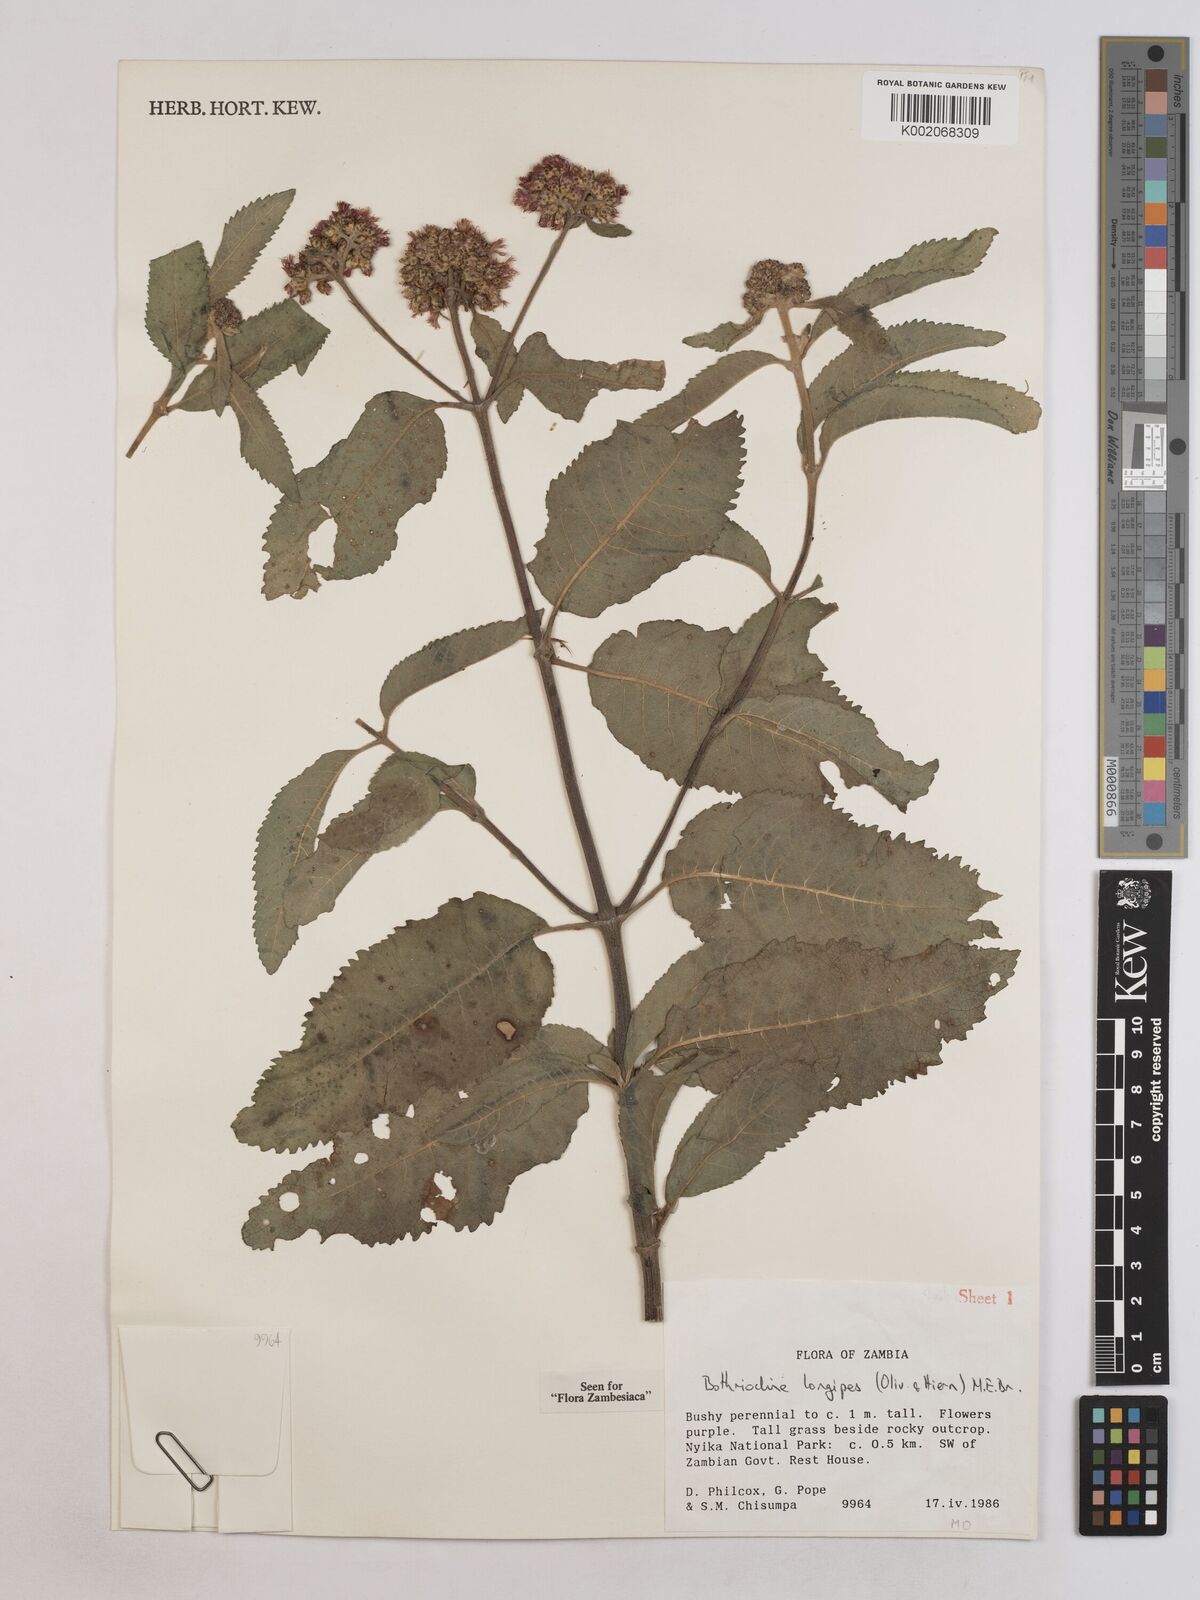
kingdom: Plantae
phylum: Tracheophyta
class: Magnoliopsida
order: Asterales
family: Asteraceae
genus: Bothriocline
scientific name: Bothriocline longipes
